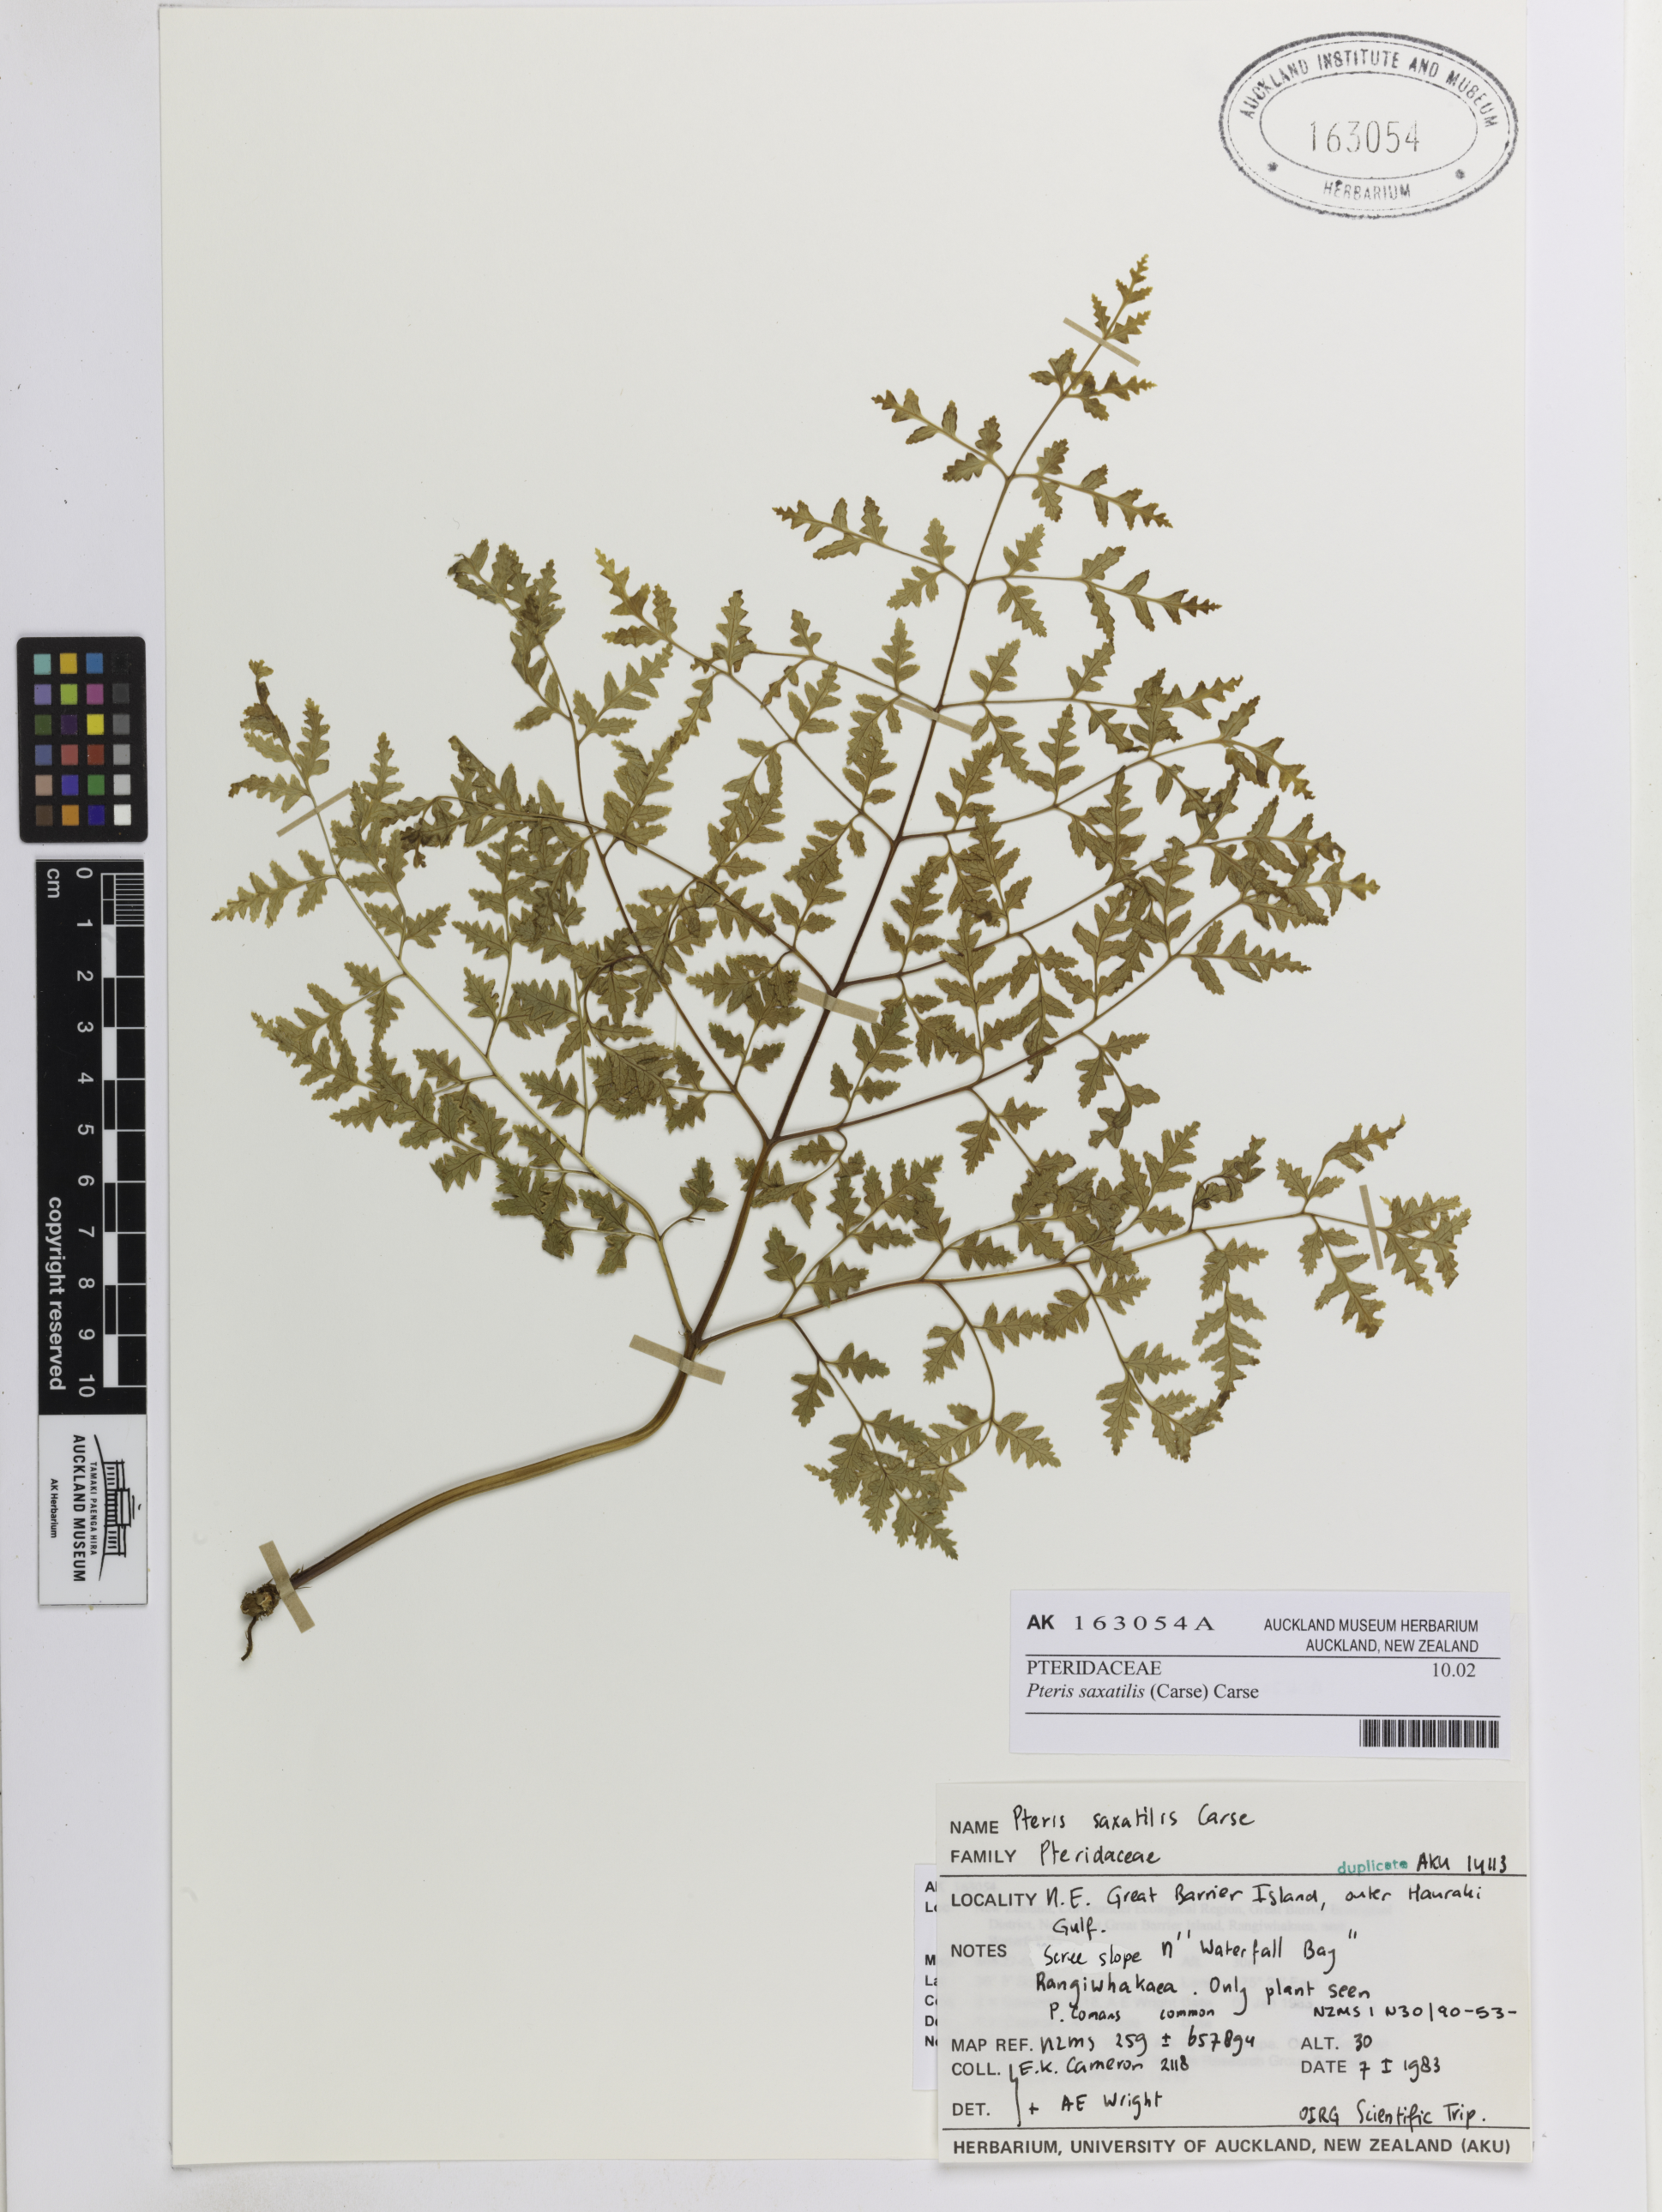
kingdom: Plantae
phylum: Tracheophyta
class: Polypodiopsida
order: Polypodiales
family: Pteridaceae
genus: Pteris
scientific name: Pteris saxatilis
